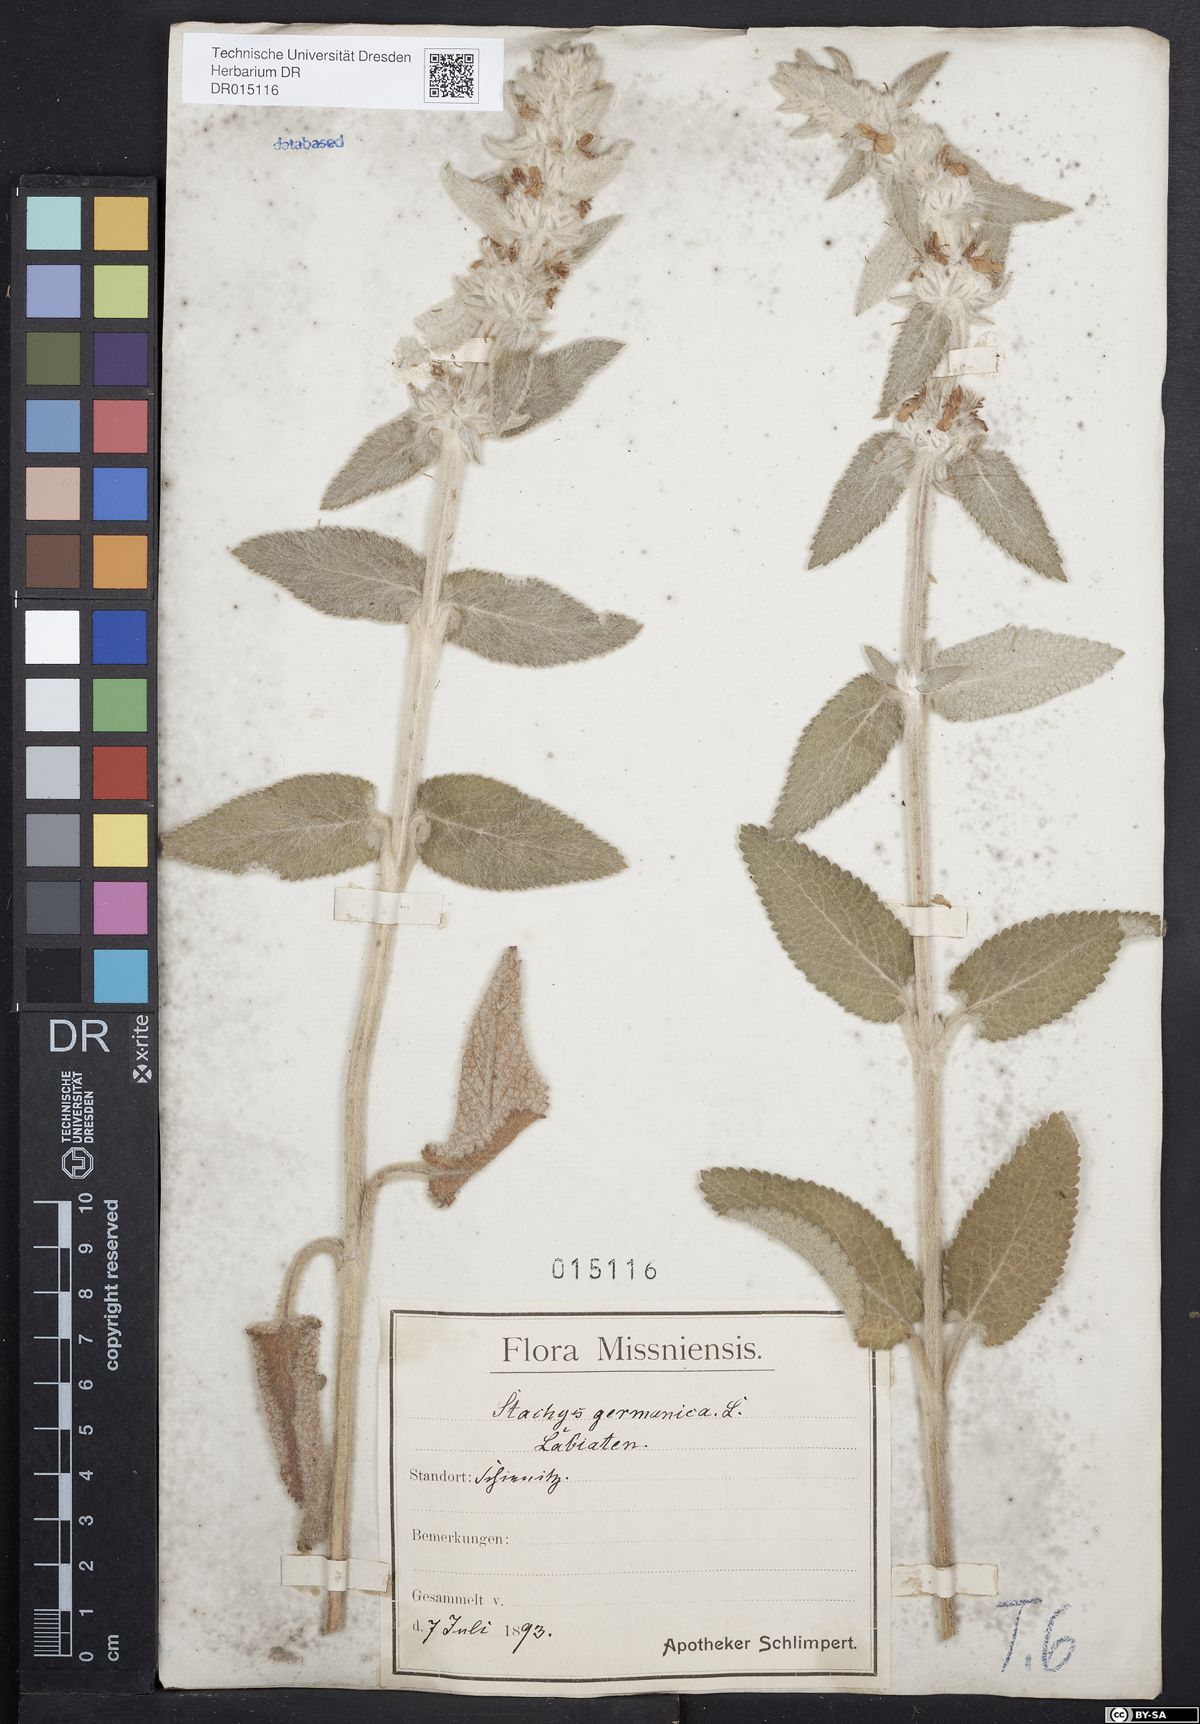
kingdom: Plantae
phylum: Tracheophyta
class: Magnoliopsida
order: Lamiales
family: Lamiaceae
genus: Stachys
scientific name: Stachys germanica
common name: Downy woundwort
